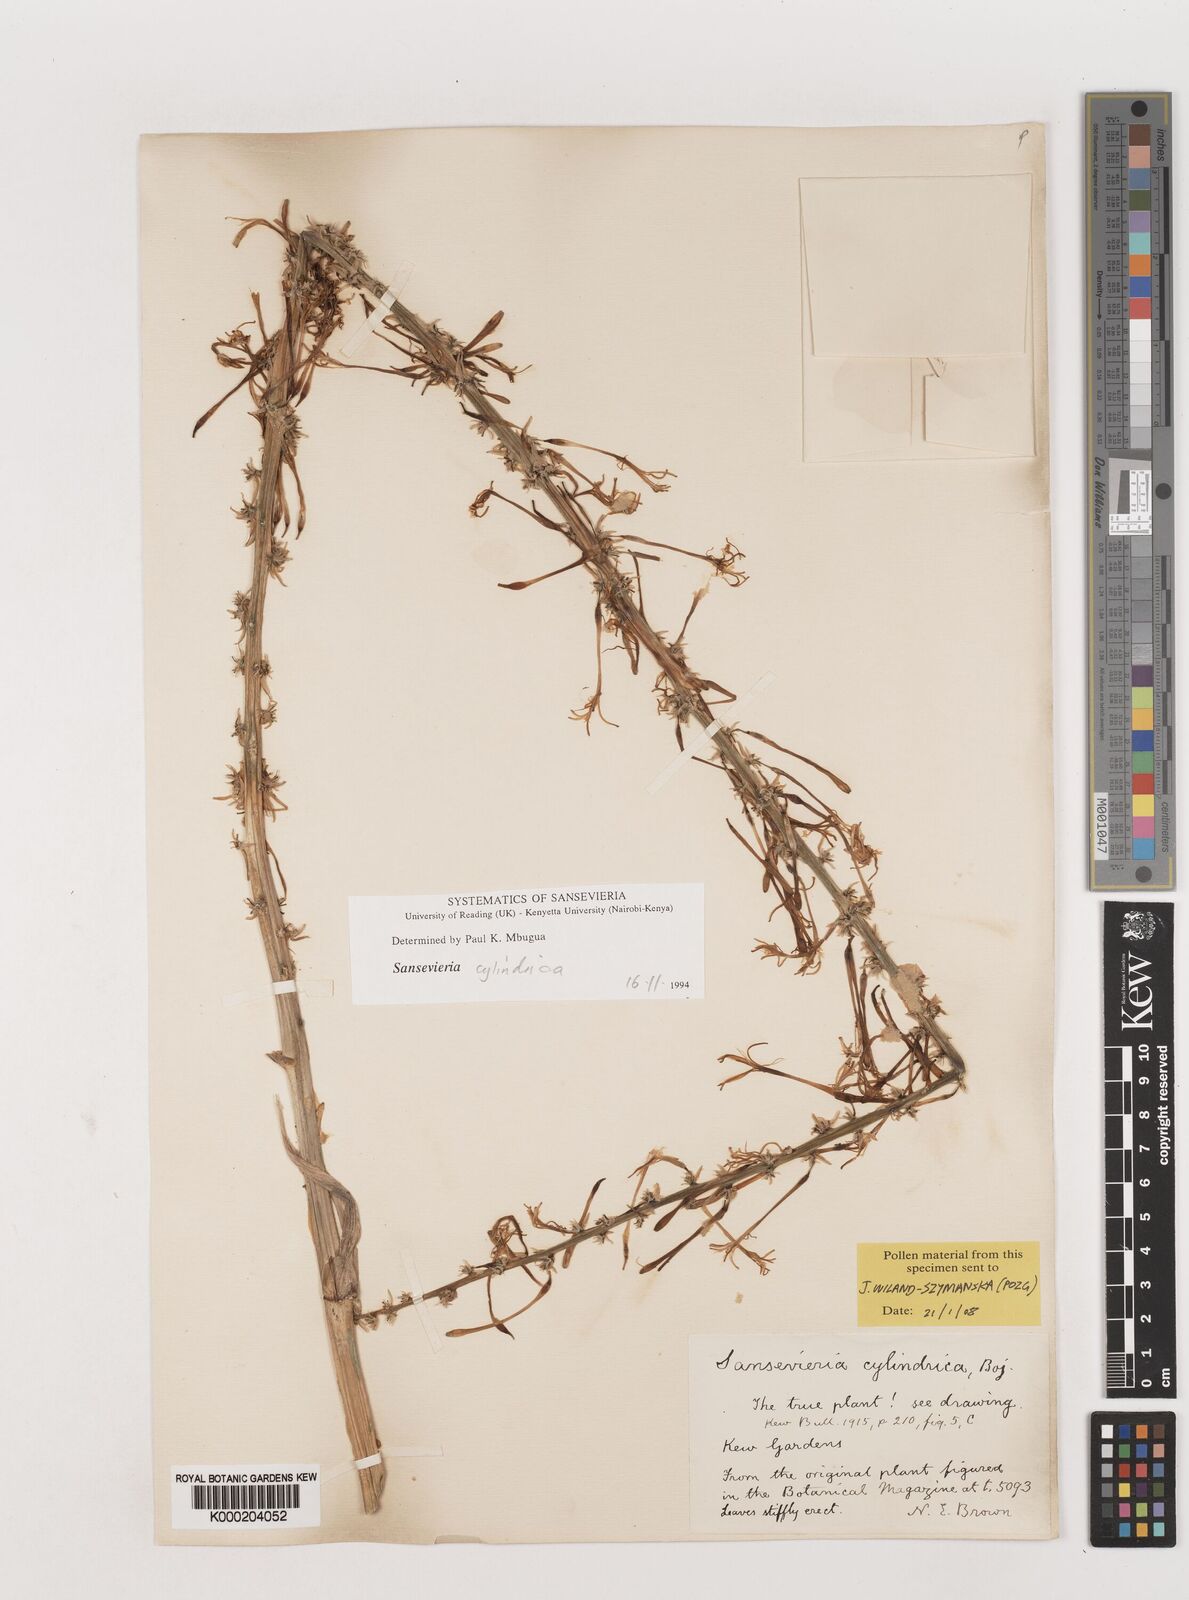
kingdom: Plantae
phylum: Tracheophyta
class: Liliopsida
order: Asparagales
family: Asparagaceae
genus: Dracaena
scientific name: Dracaena angolensis
